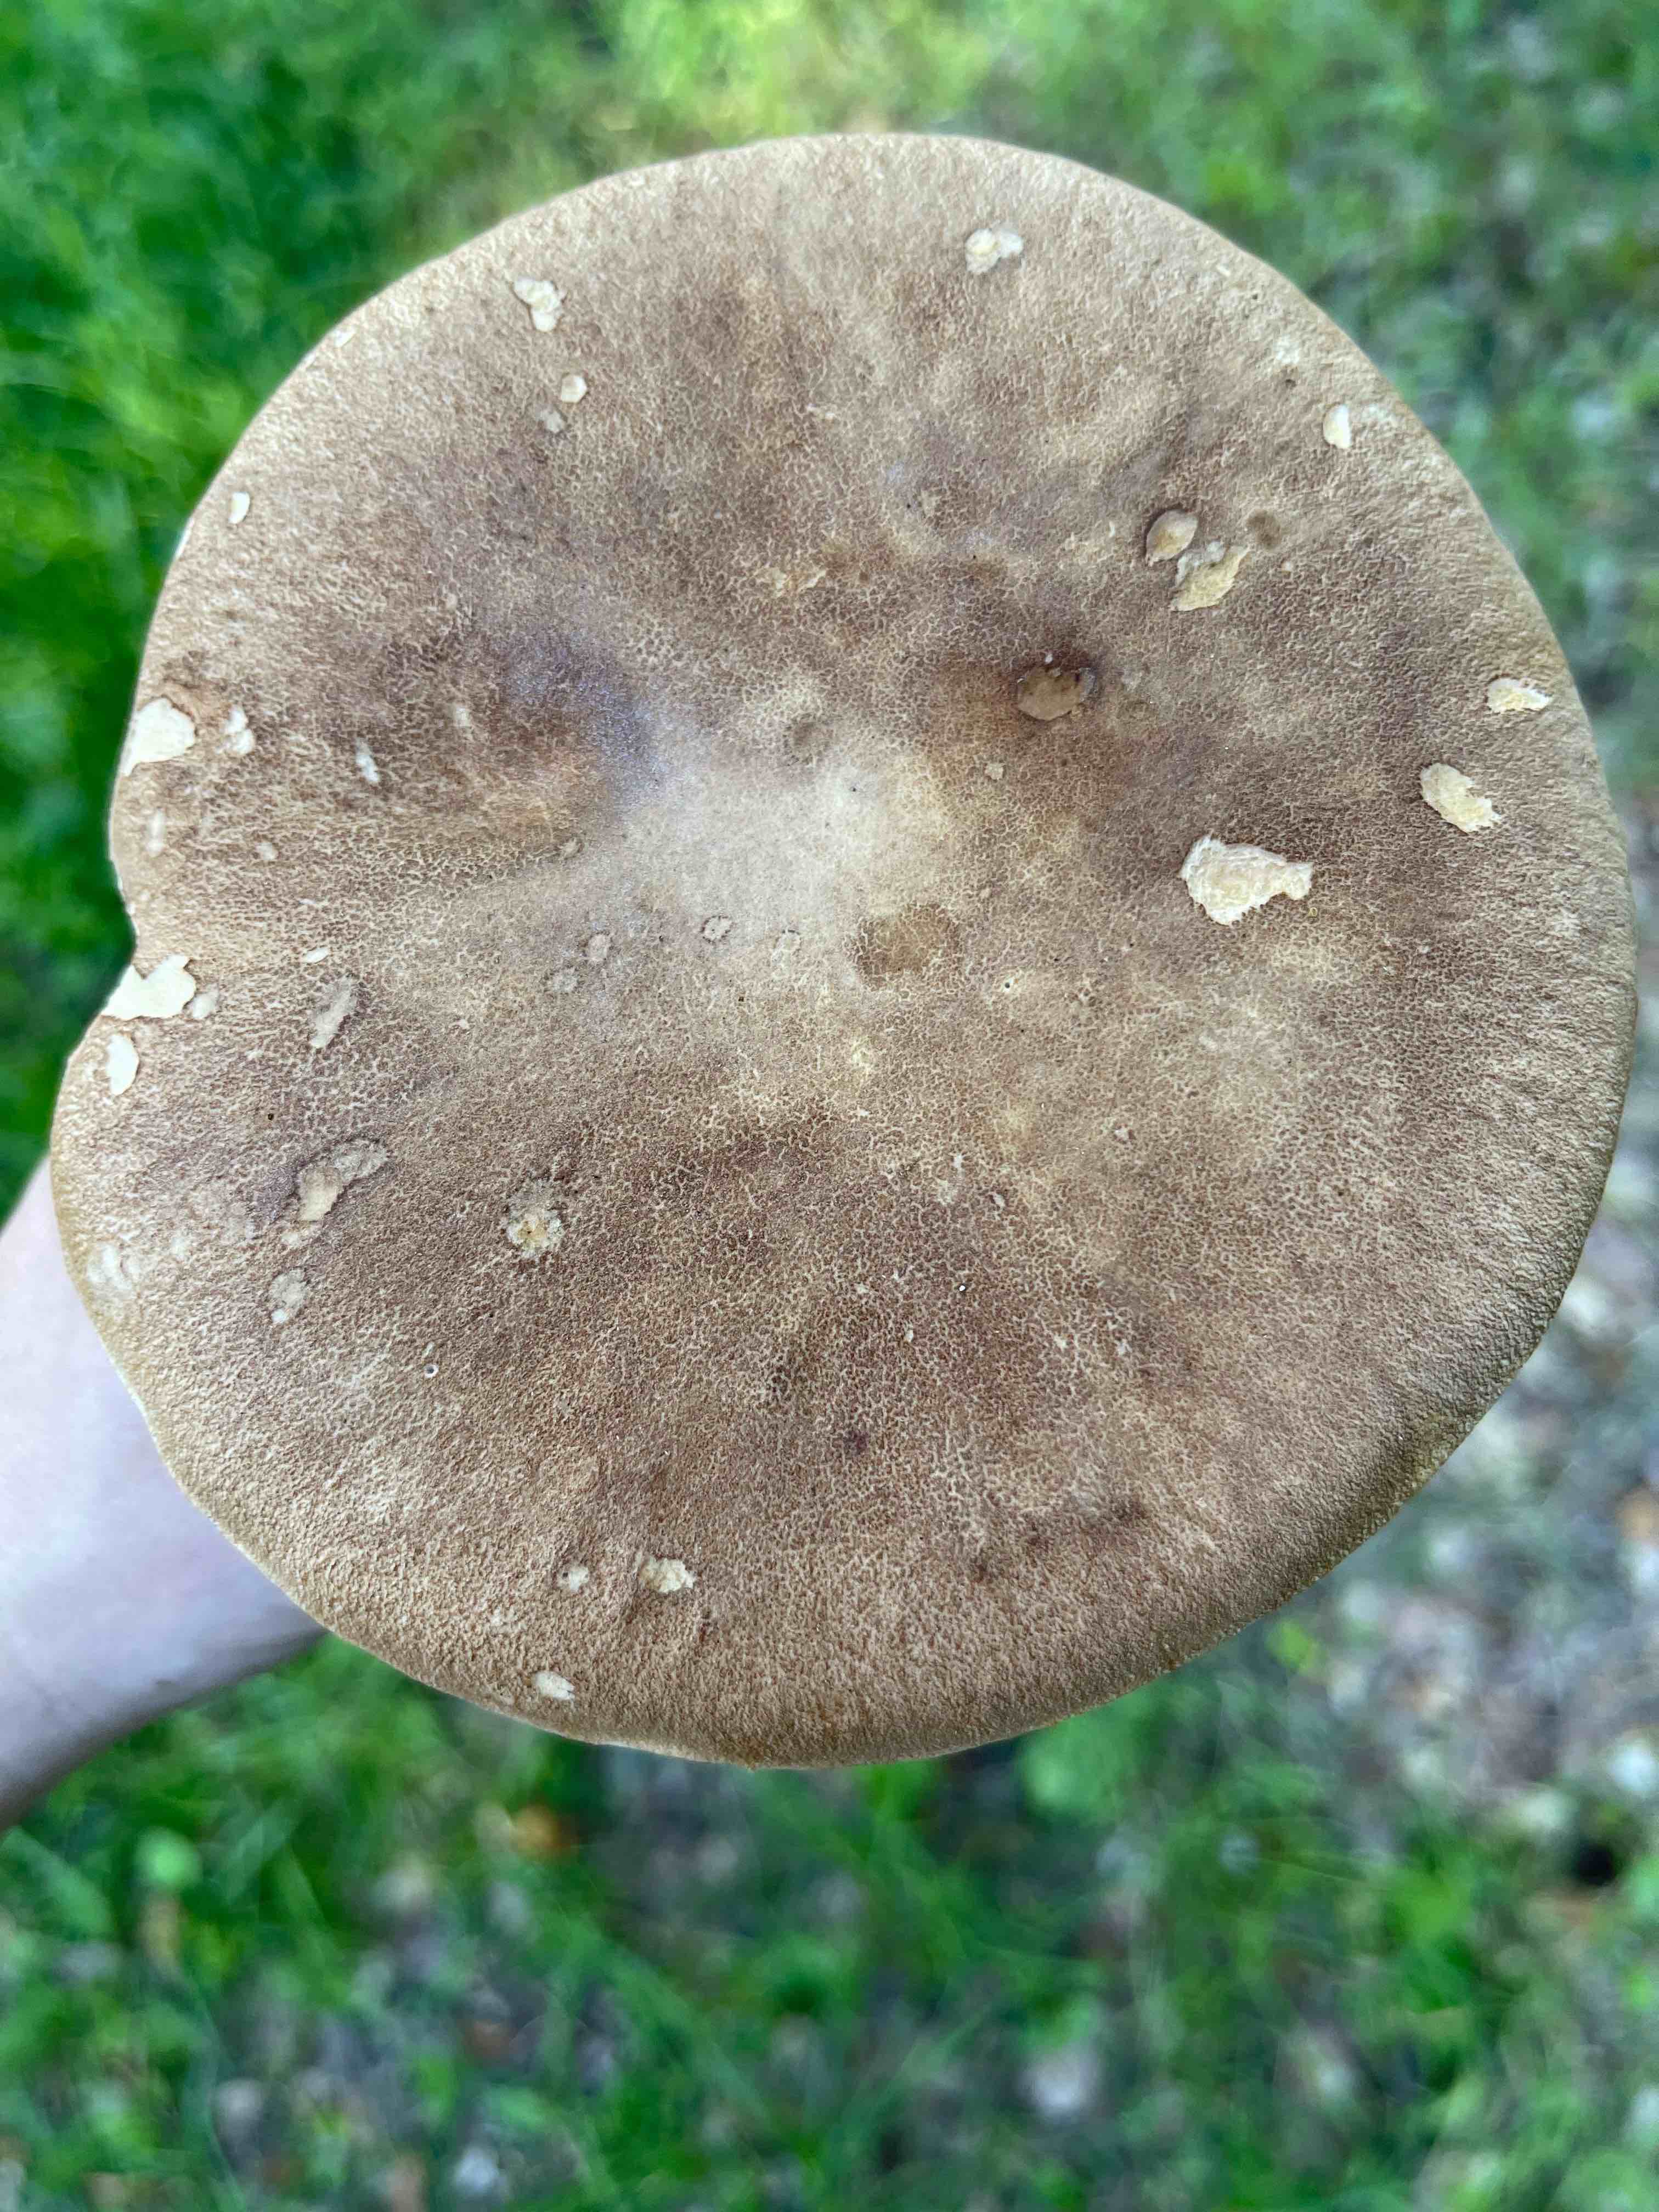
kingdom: Fungi
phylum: Basidiomycota
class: Agaricomycetes
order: Boletales
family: Boletaceae
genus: Boletus
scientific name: Boletus reticulatus
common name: sommer-rørhat
